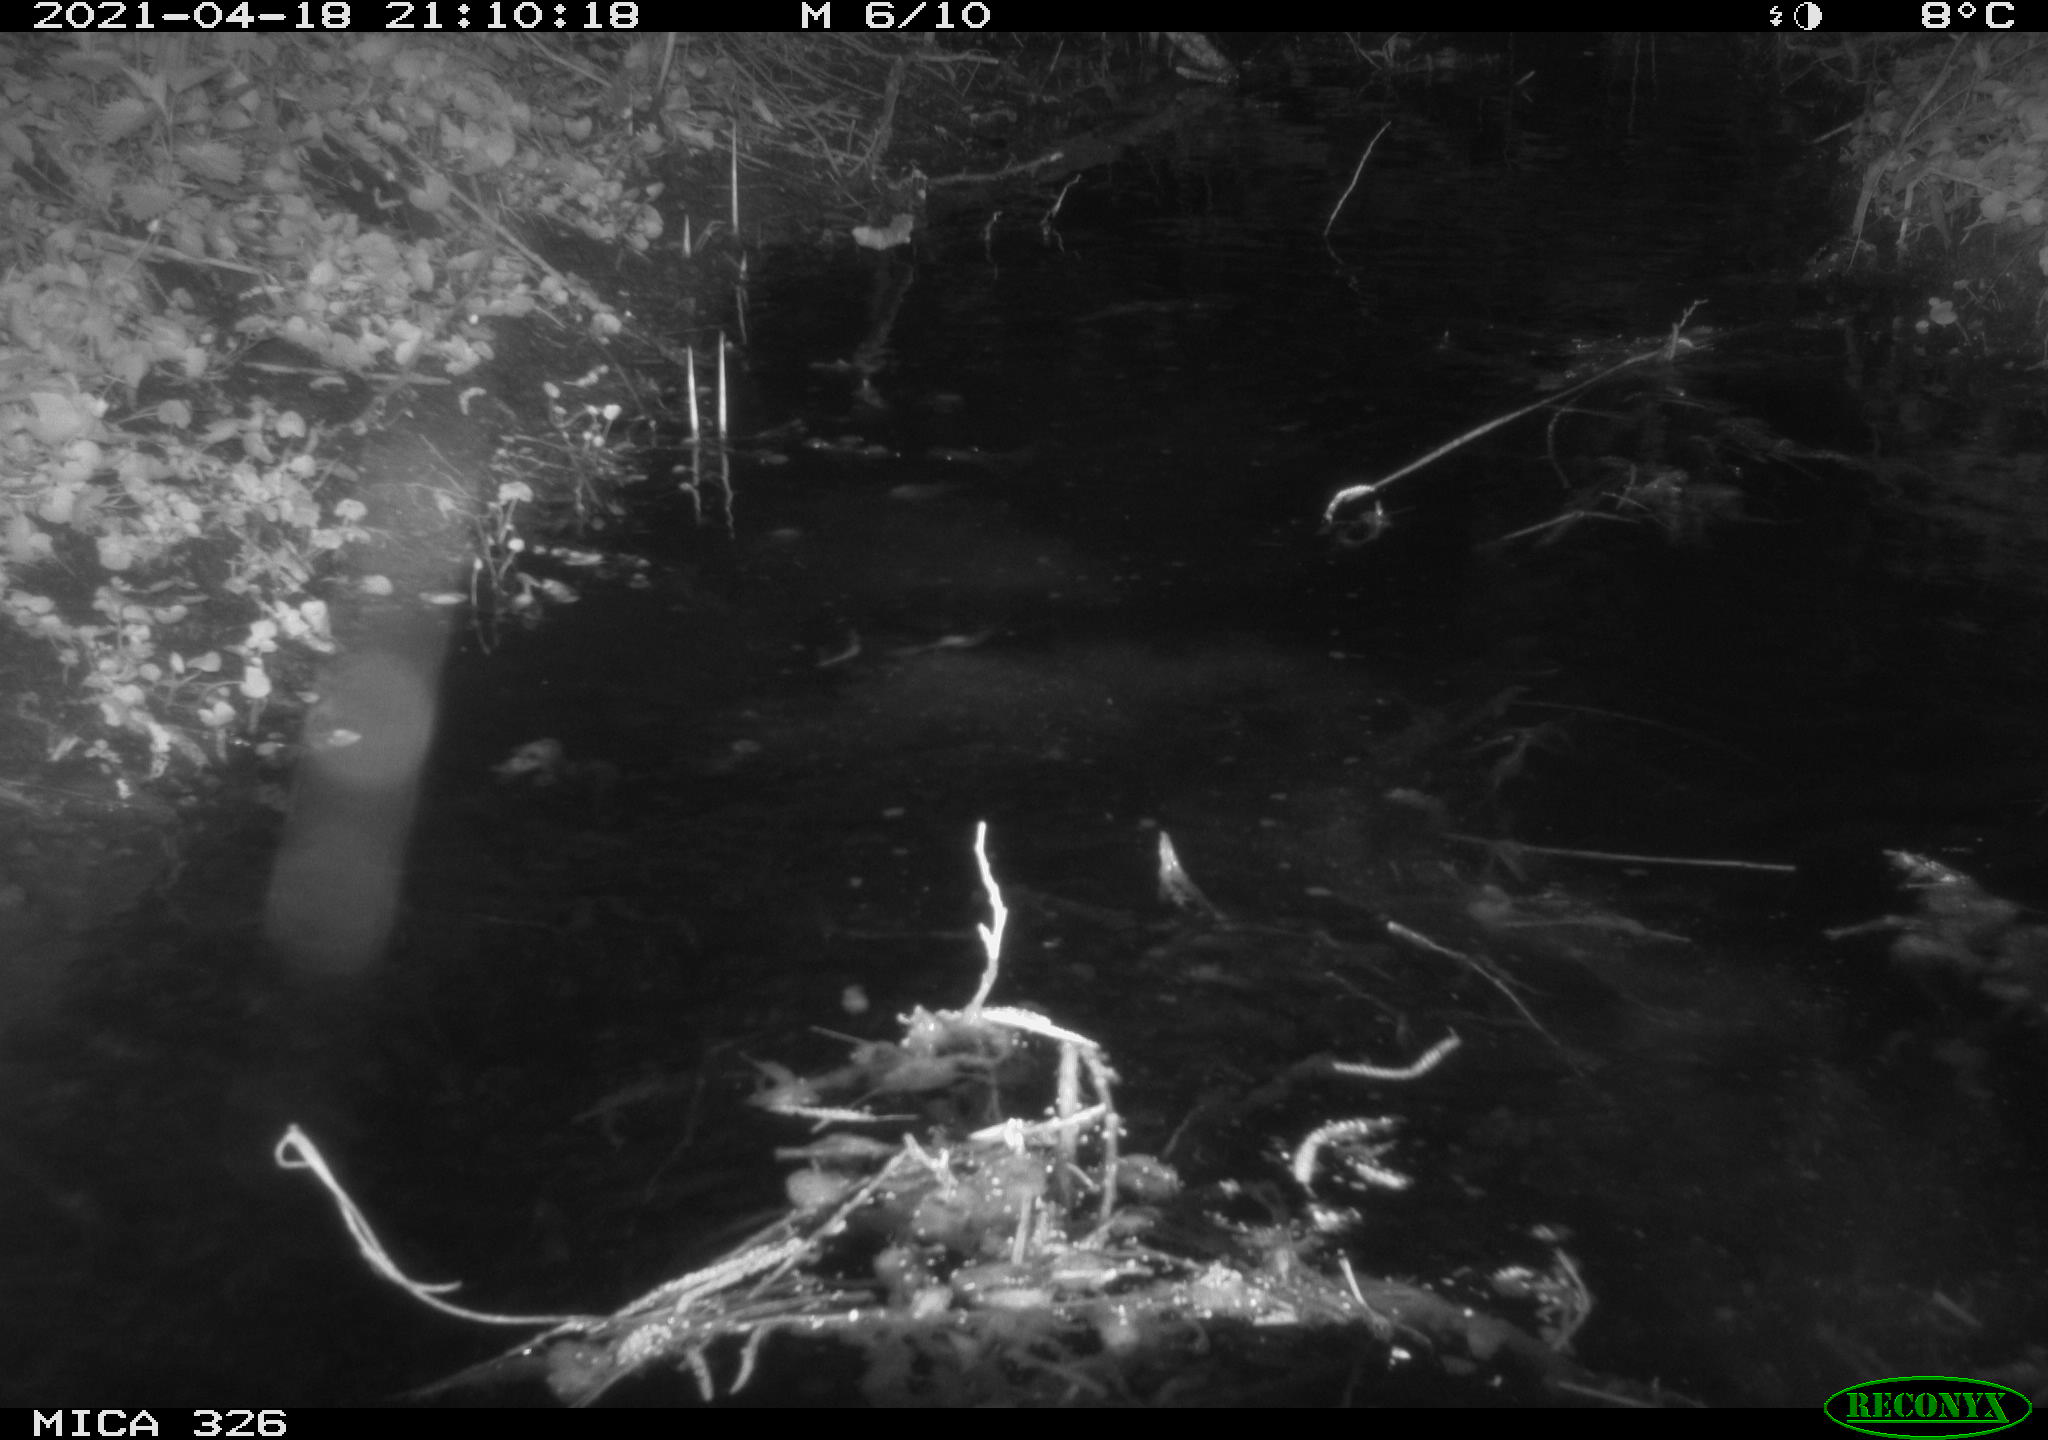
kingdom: Animalia
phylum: Chordata
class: Mammalia
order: Rodentia
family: Myocastoridae
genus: Myocastor
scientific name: Myocastor coypus
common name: Coypu
